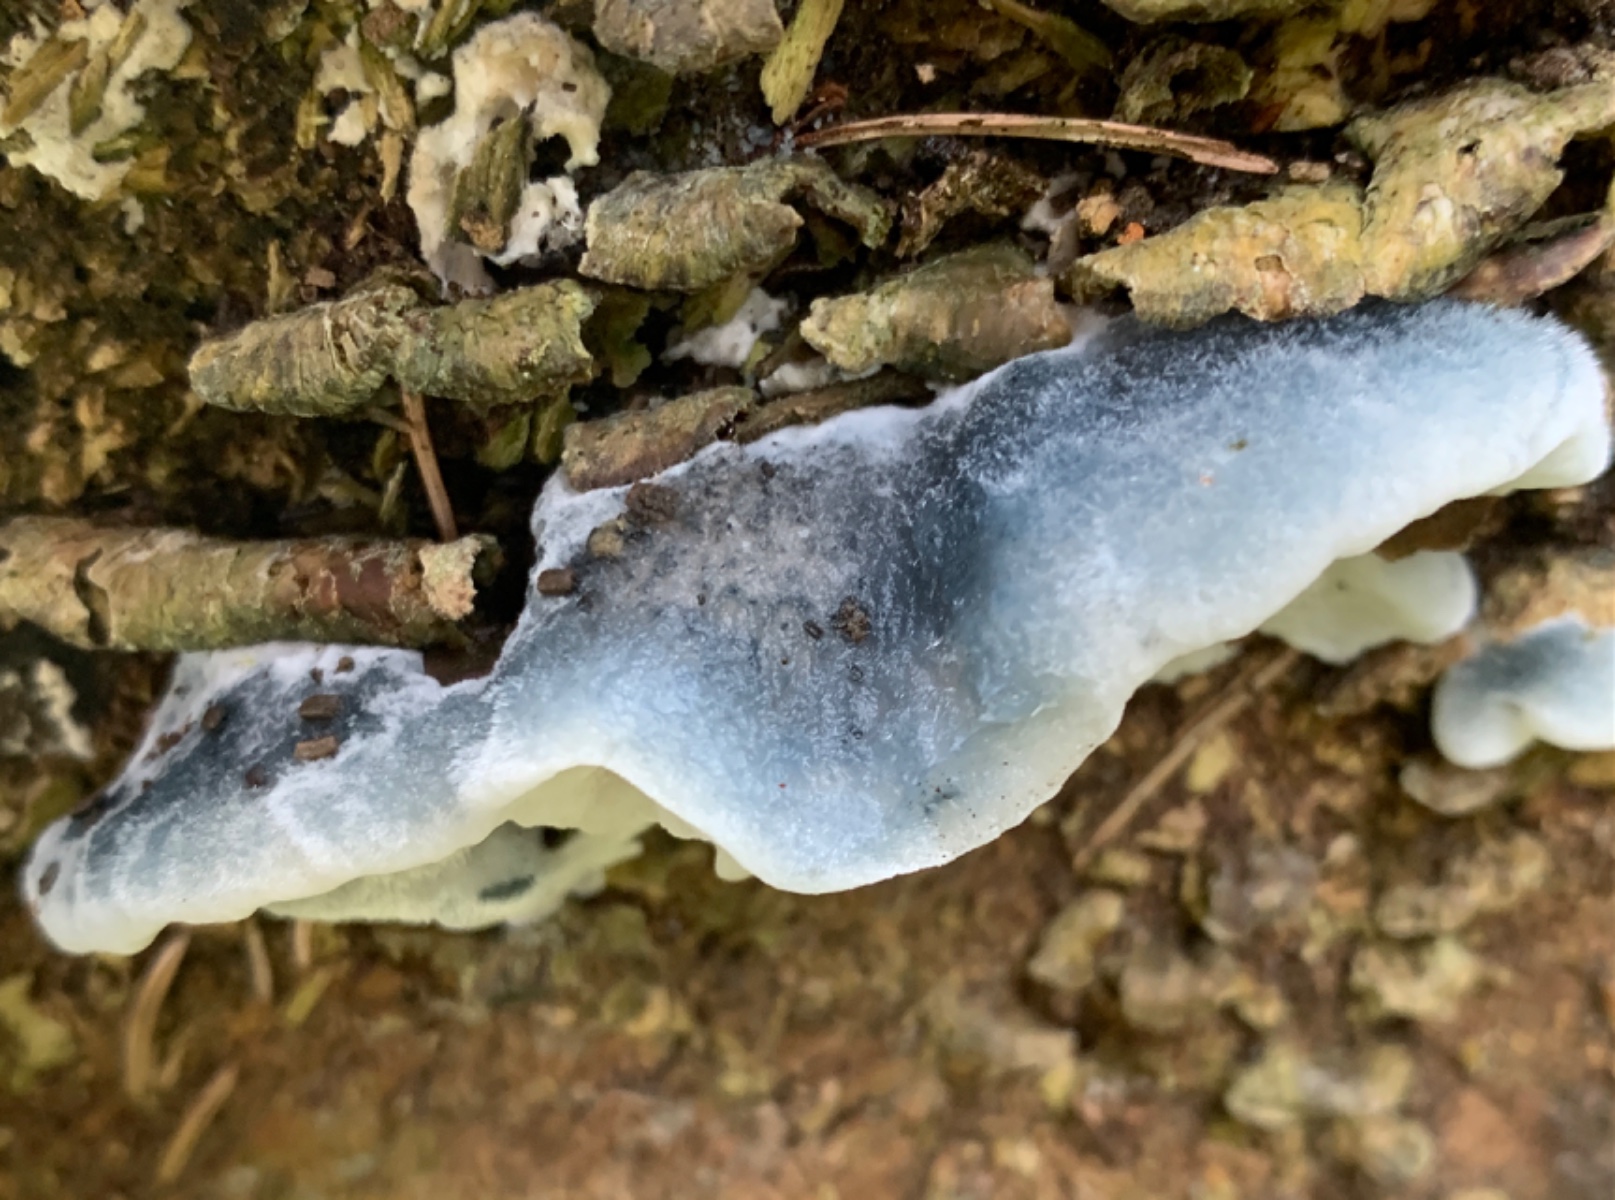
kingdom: Fungi
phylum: Basidiomycota
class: Agaricomycetes
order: Polyporales
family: Polyporaceae
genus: Cyanosporus
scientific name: Cyanosporus caesius
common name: blålig kødporesvamp
